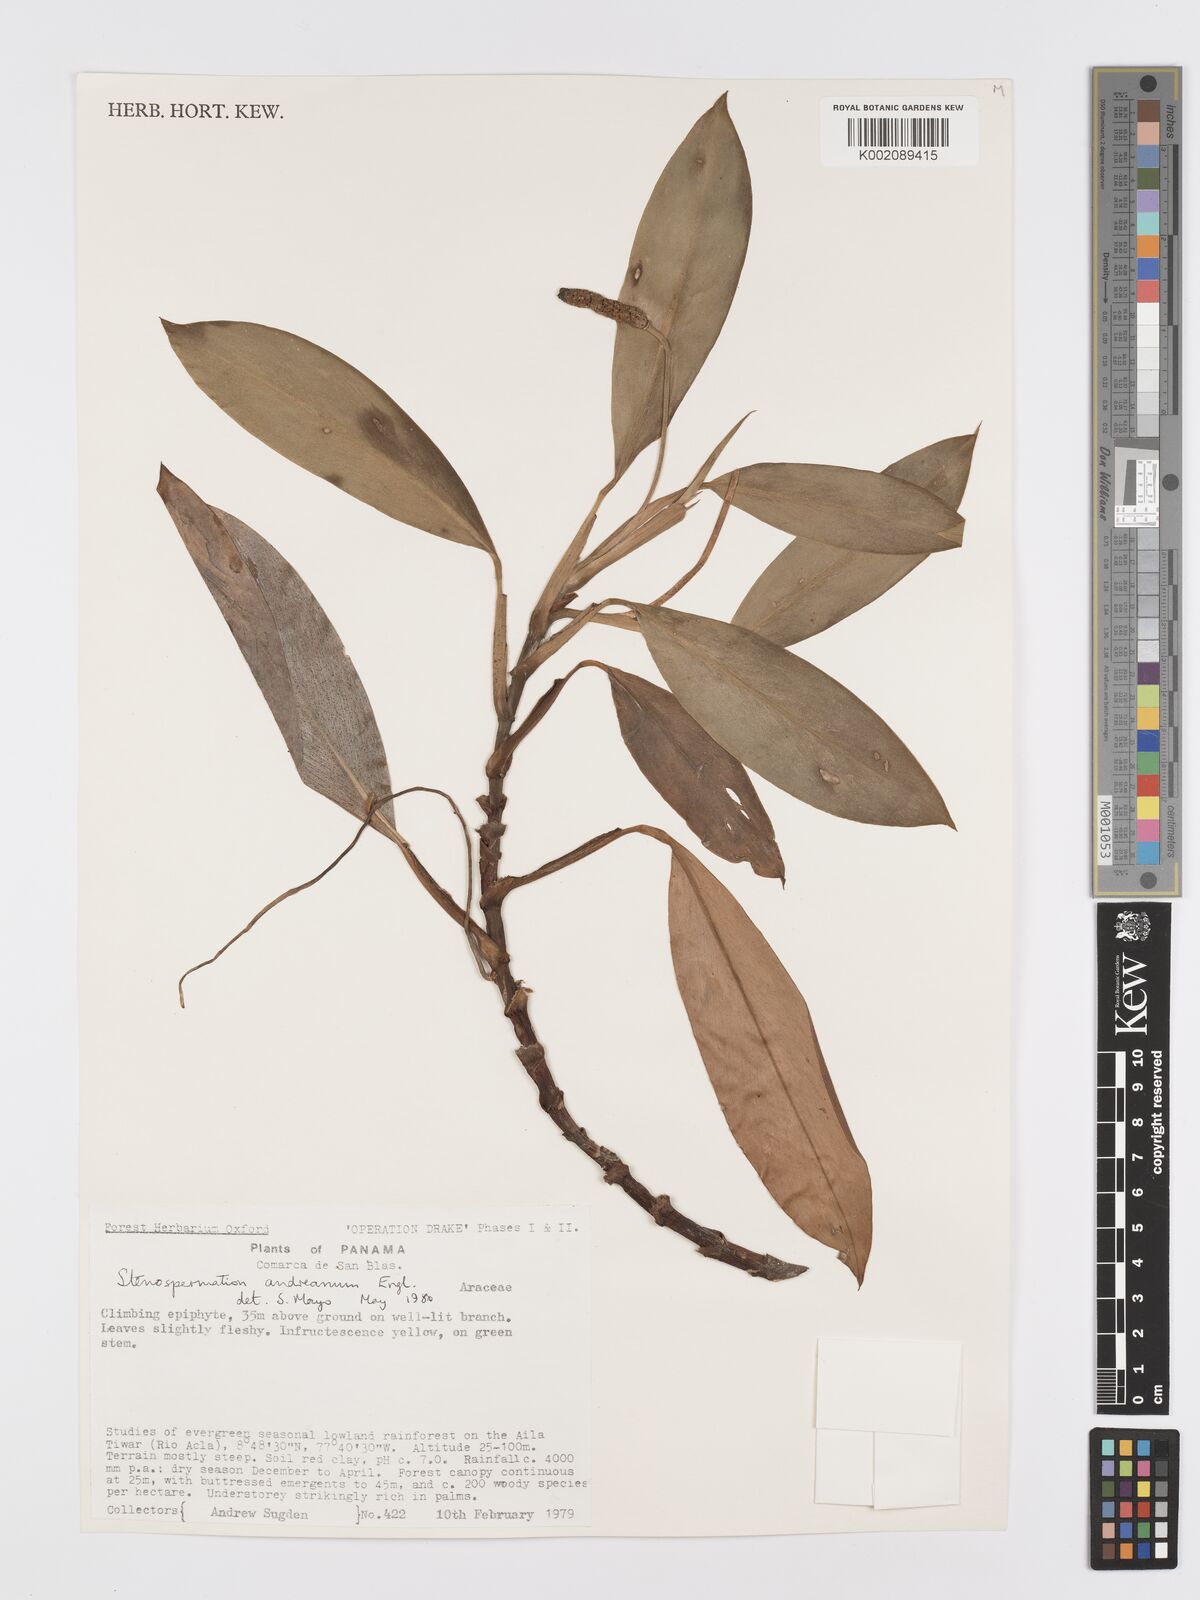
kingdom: Plantae
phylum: Tracheophyta
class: Liliopsida
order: Alismatales
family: Araceae
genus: Stenospermation
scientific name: Stenospermation andreanum
